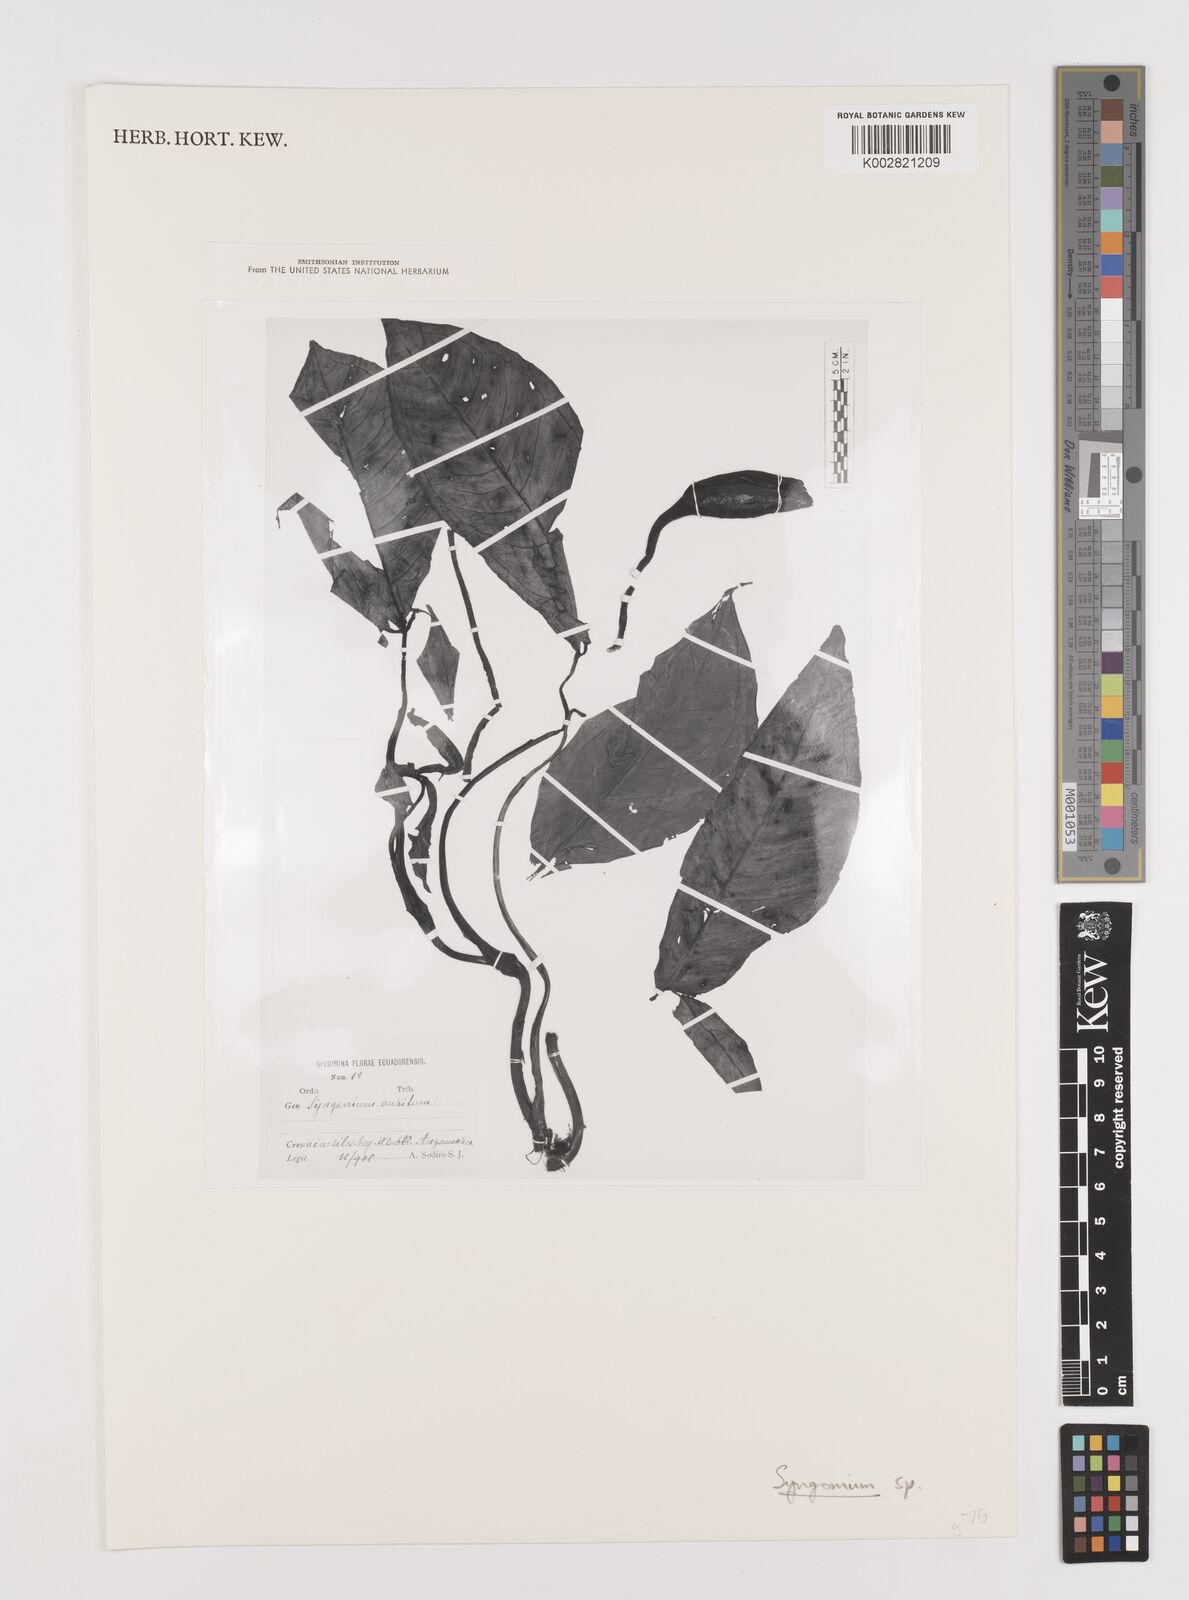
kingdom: Plantae
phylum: Tracheophyta
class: Liliopsida
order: Alismatales
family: Araceae
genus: Syngonium
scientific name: Syngonium
